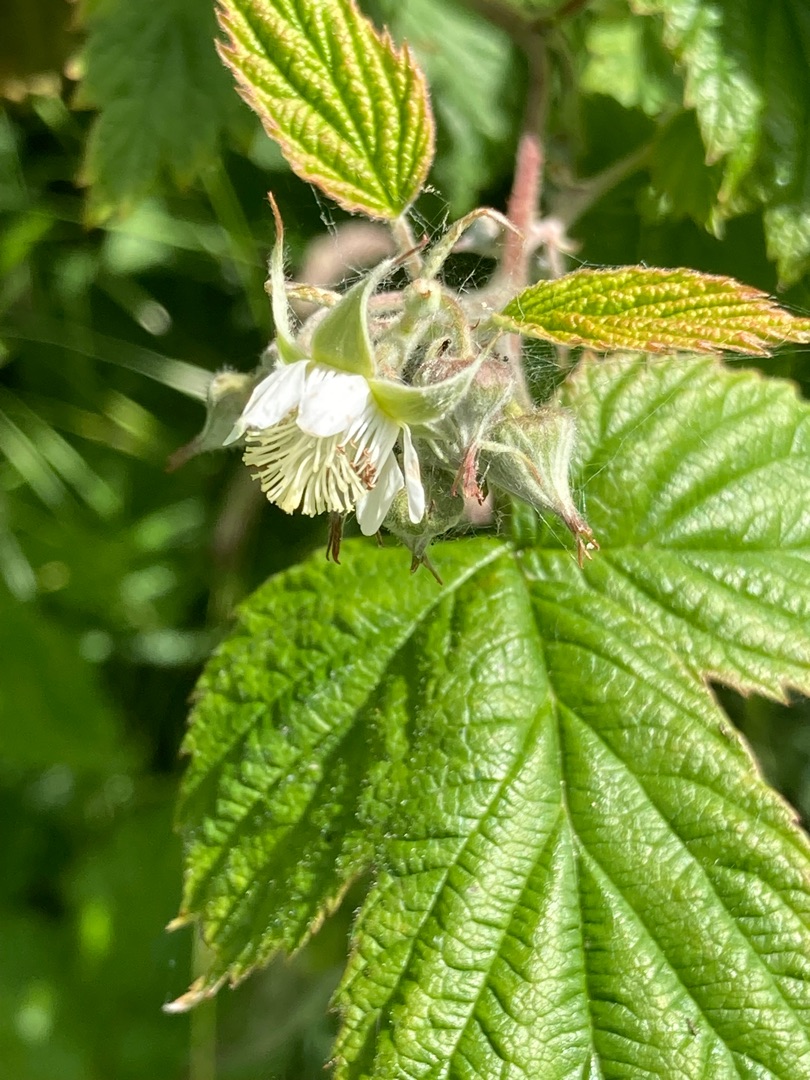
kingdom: Plantae
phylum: Tracheophyta
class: Magnoliopsida
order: Rosales
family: Rosaceae
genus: Rubus
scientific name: Rubus idaeus
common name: Hindbær
